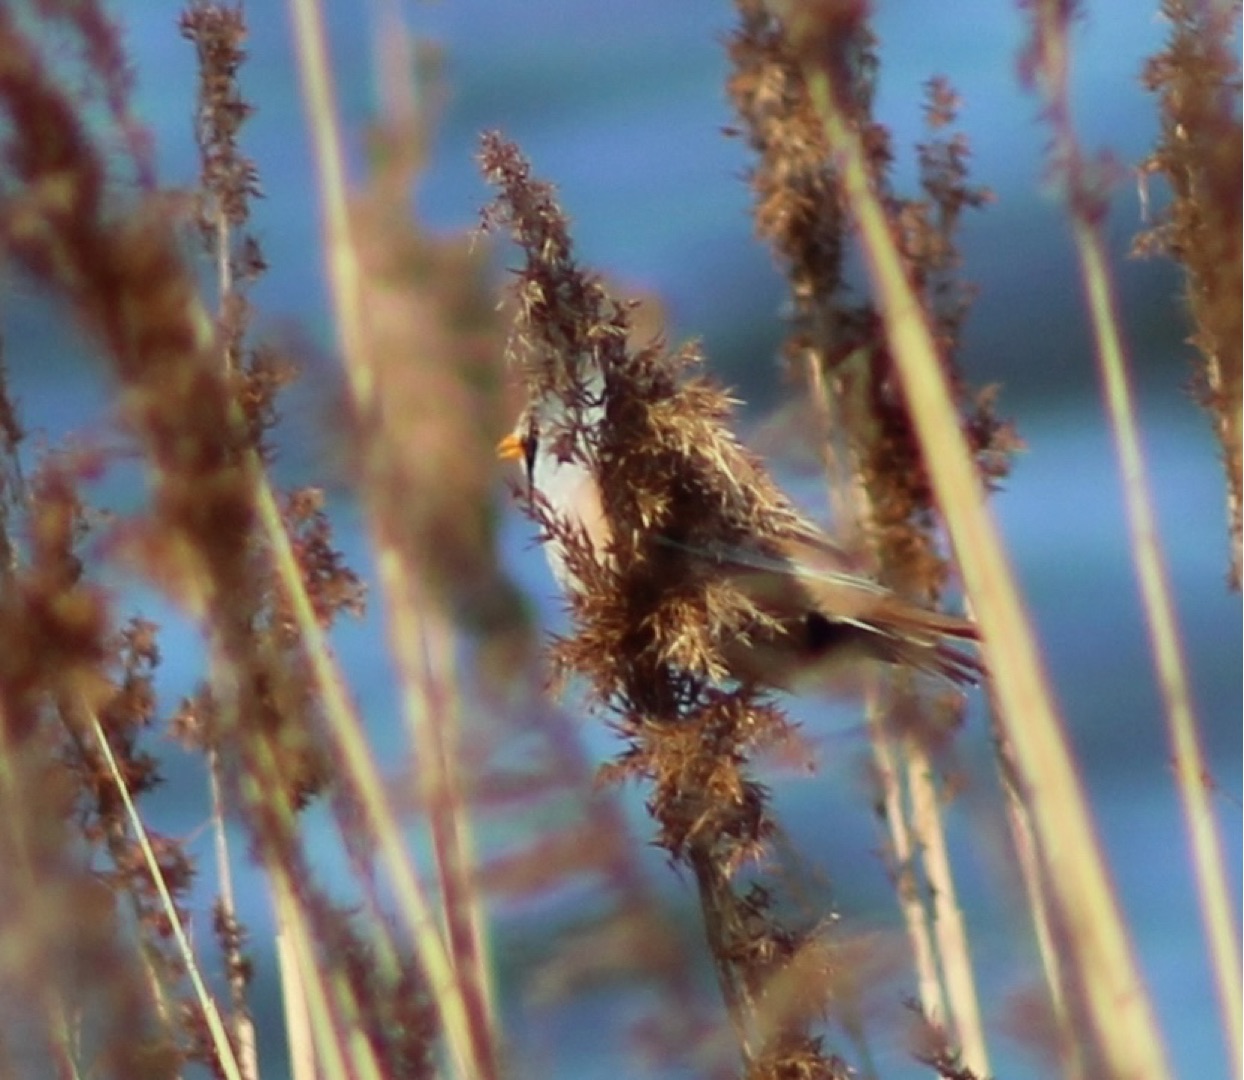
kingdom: Animalia
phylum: Chordata
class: Aves
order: Passeriformes
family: Panuridae
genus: Panurus
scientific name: Panurus biarmicus
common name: Skægmejse
